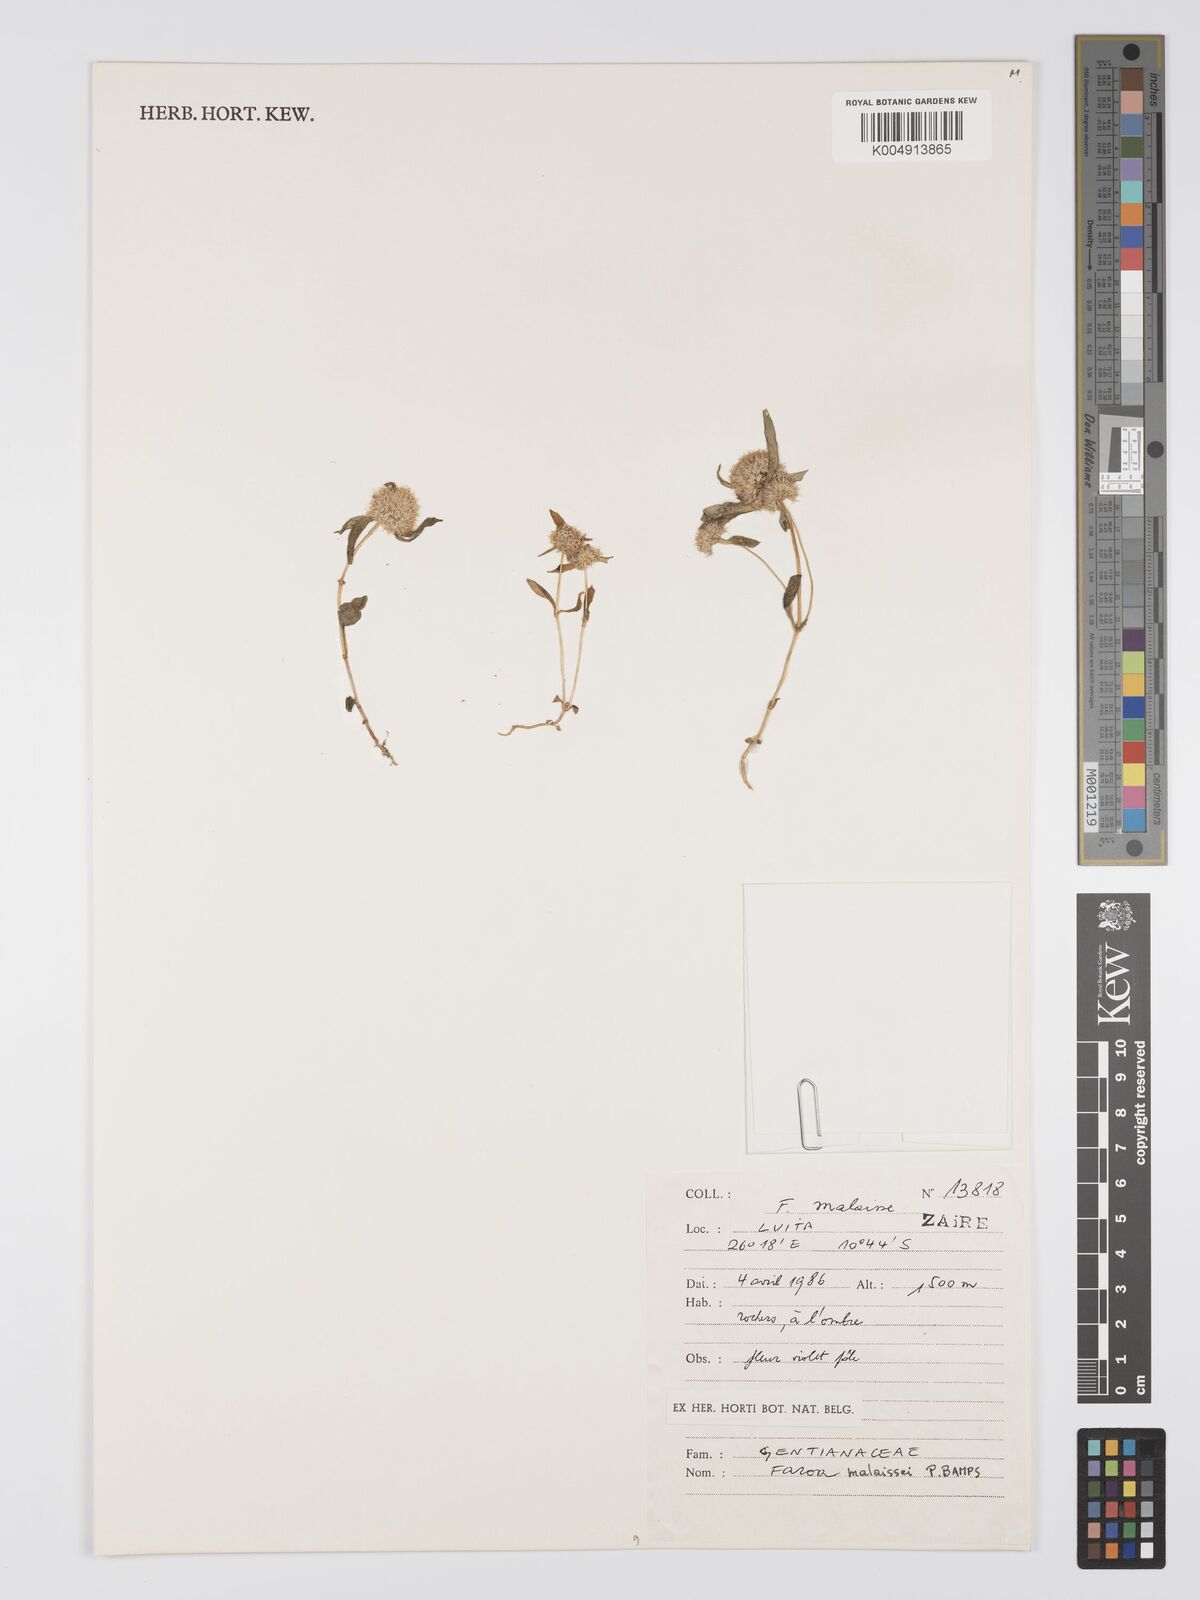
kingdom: Plantae
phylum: Tracheophyta
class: Magnoliopsida
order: Gentianales
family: Gentianaceae
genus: Faroa
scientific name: Faroa malaissei
